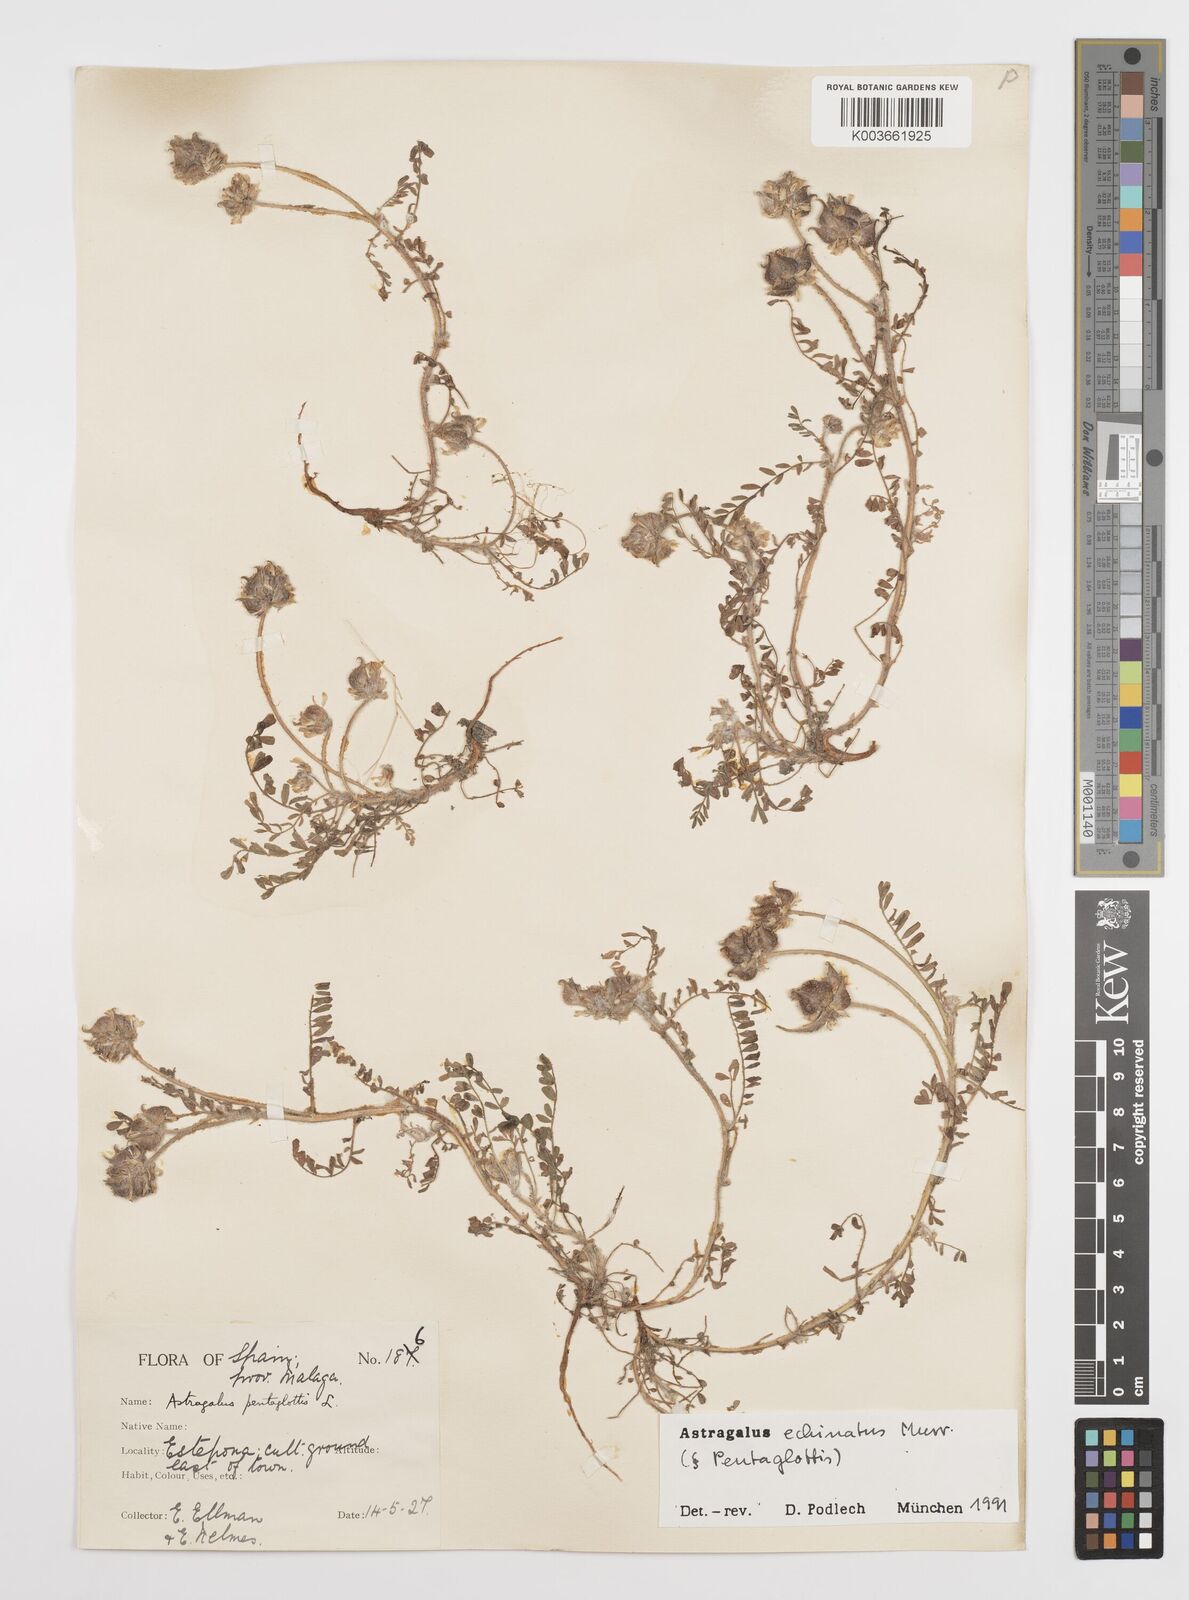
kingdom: Plantae
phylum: Tracheophyta
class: Magnoliopsida
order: Fabales
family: Fabaceae
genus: Astragalus
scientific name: Astragalus echinatus
